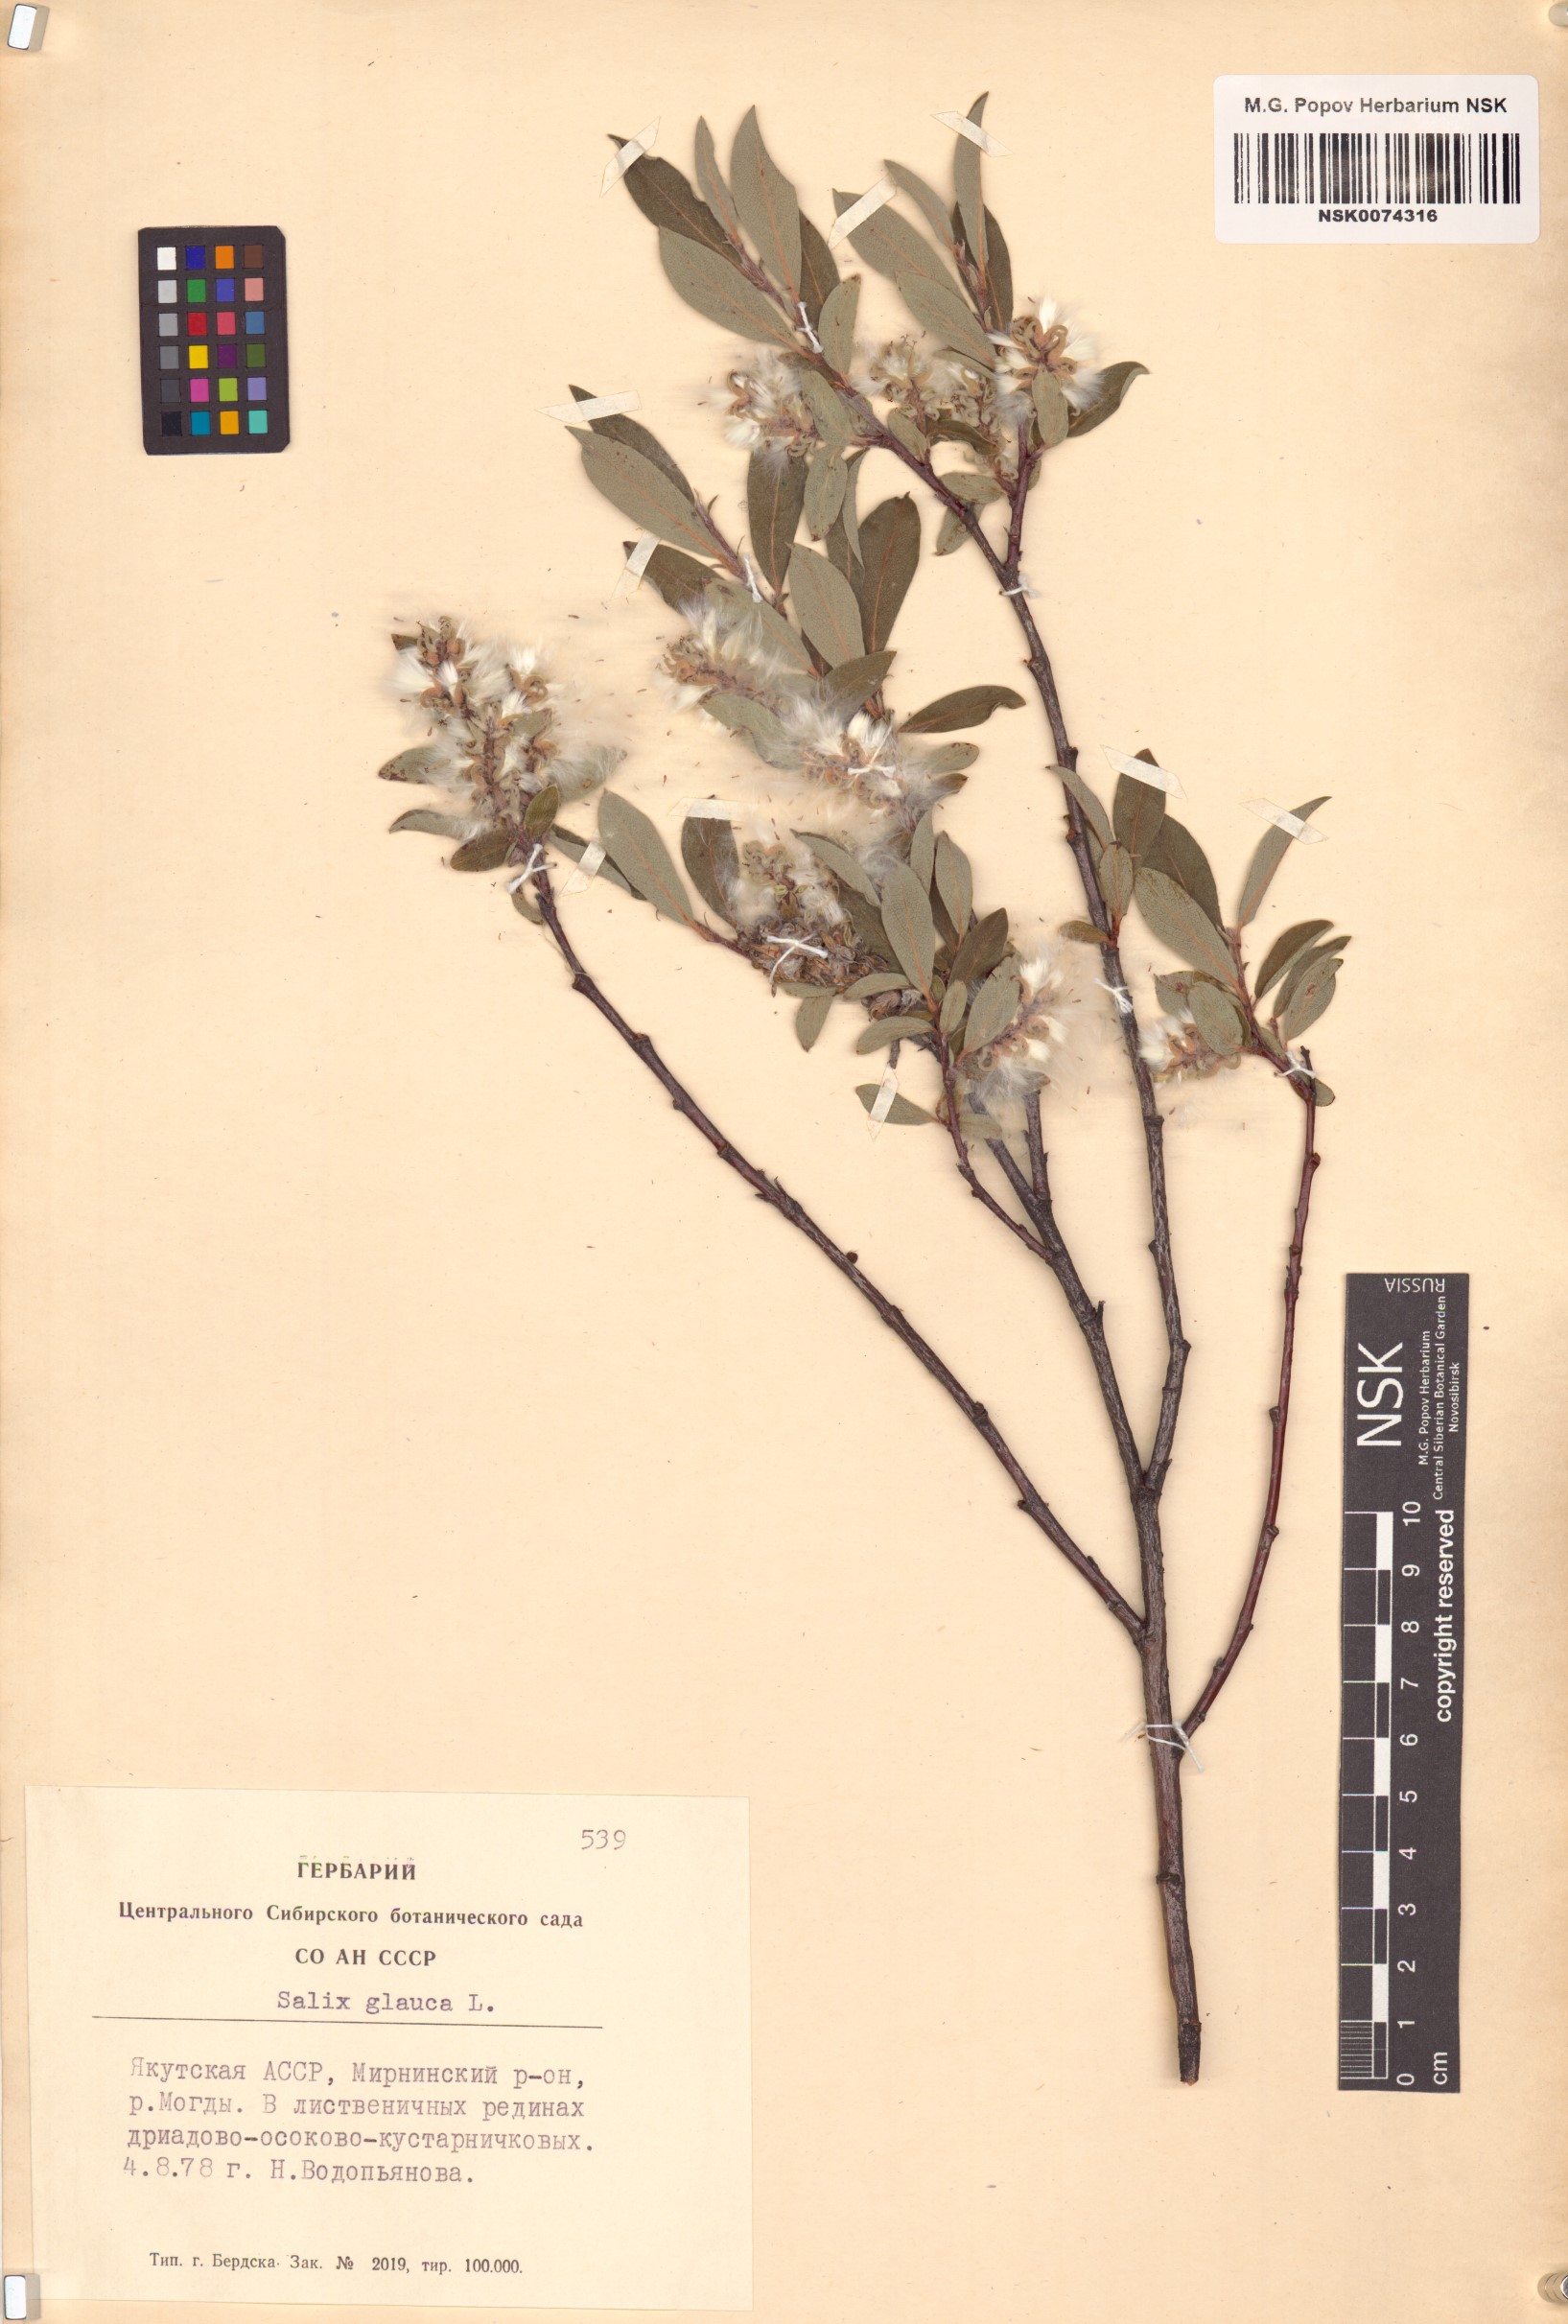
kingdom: Plantae
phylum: Tracheophyta
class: Magnoliopsida
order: Malpighiales
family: Salicaceae
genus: Salix
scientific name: Salix glauca
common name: Glaucous willow
